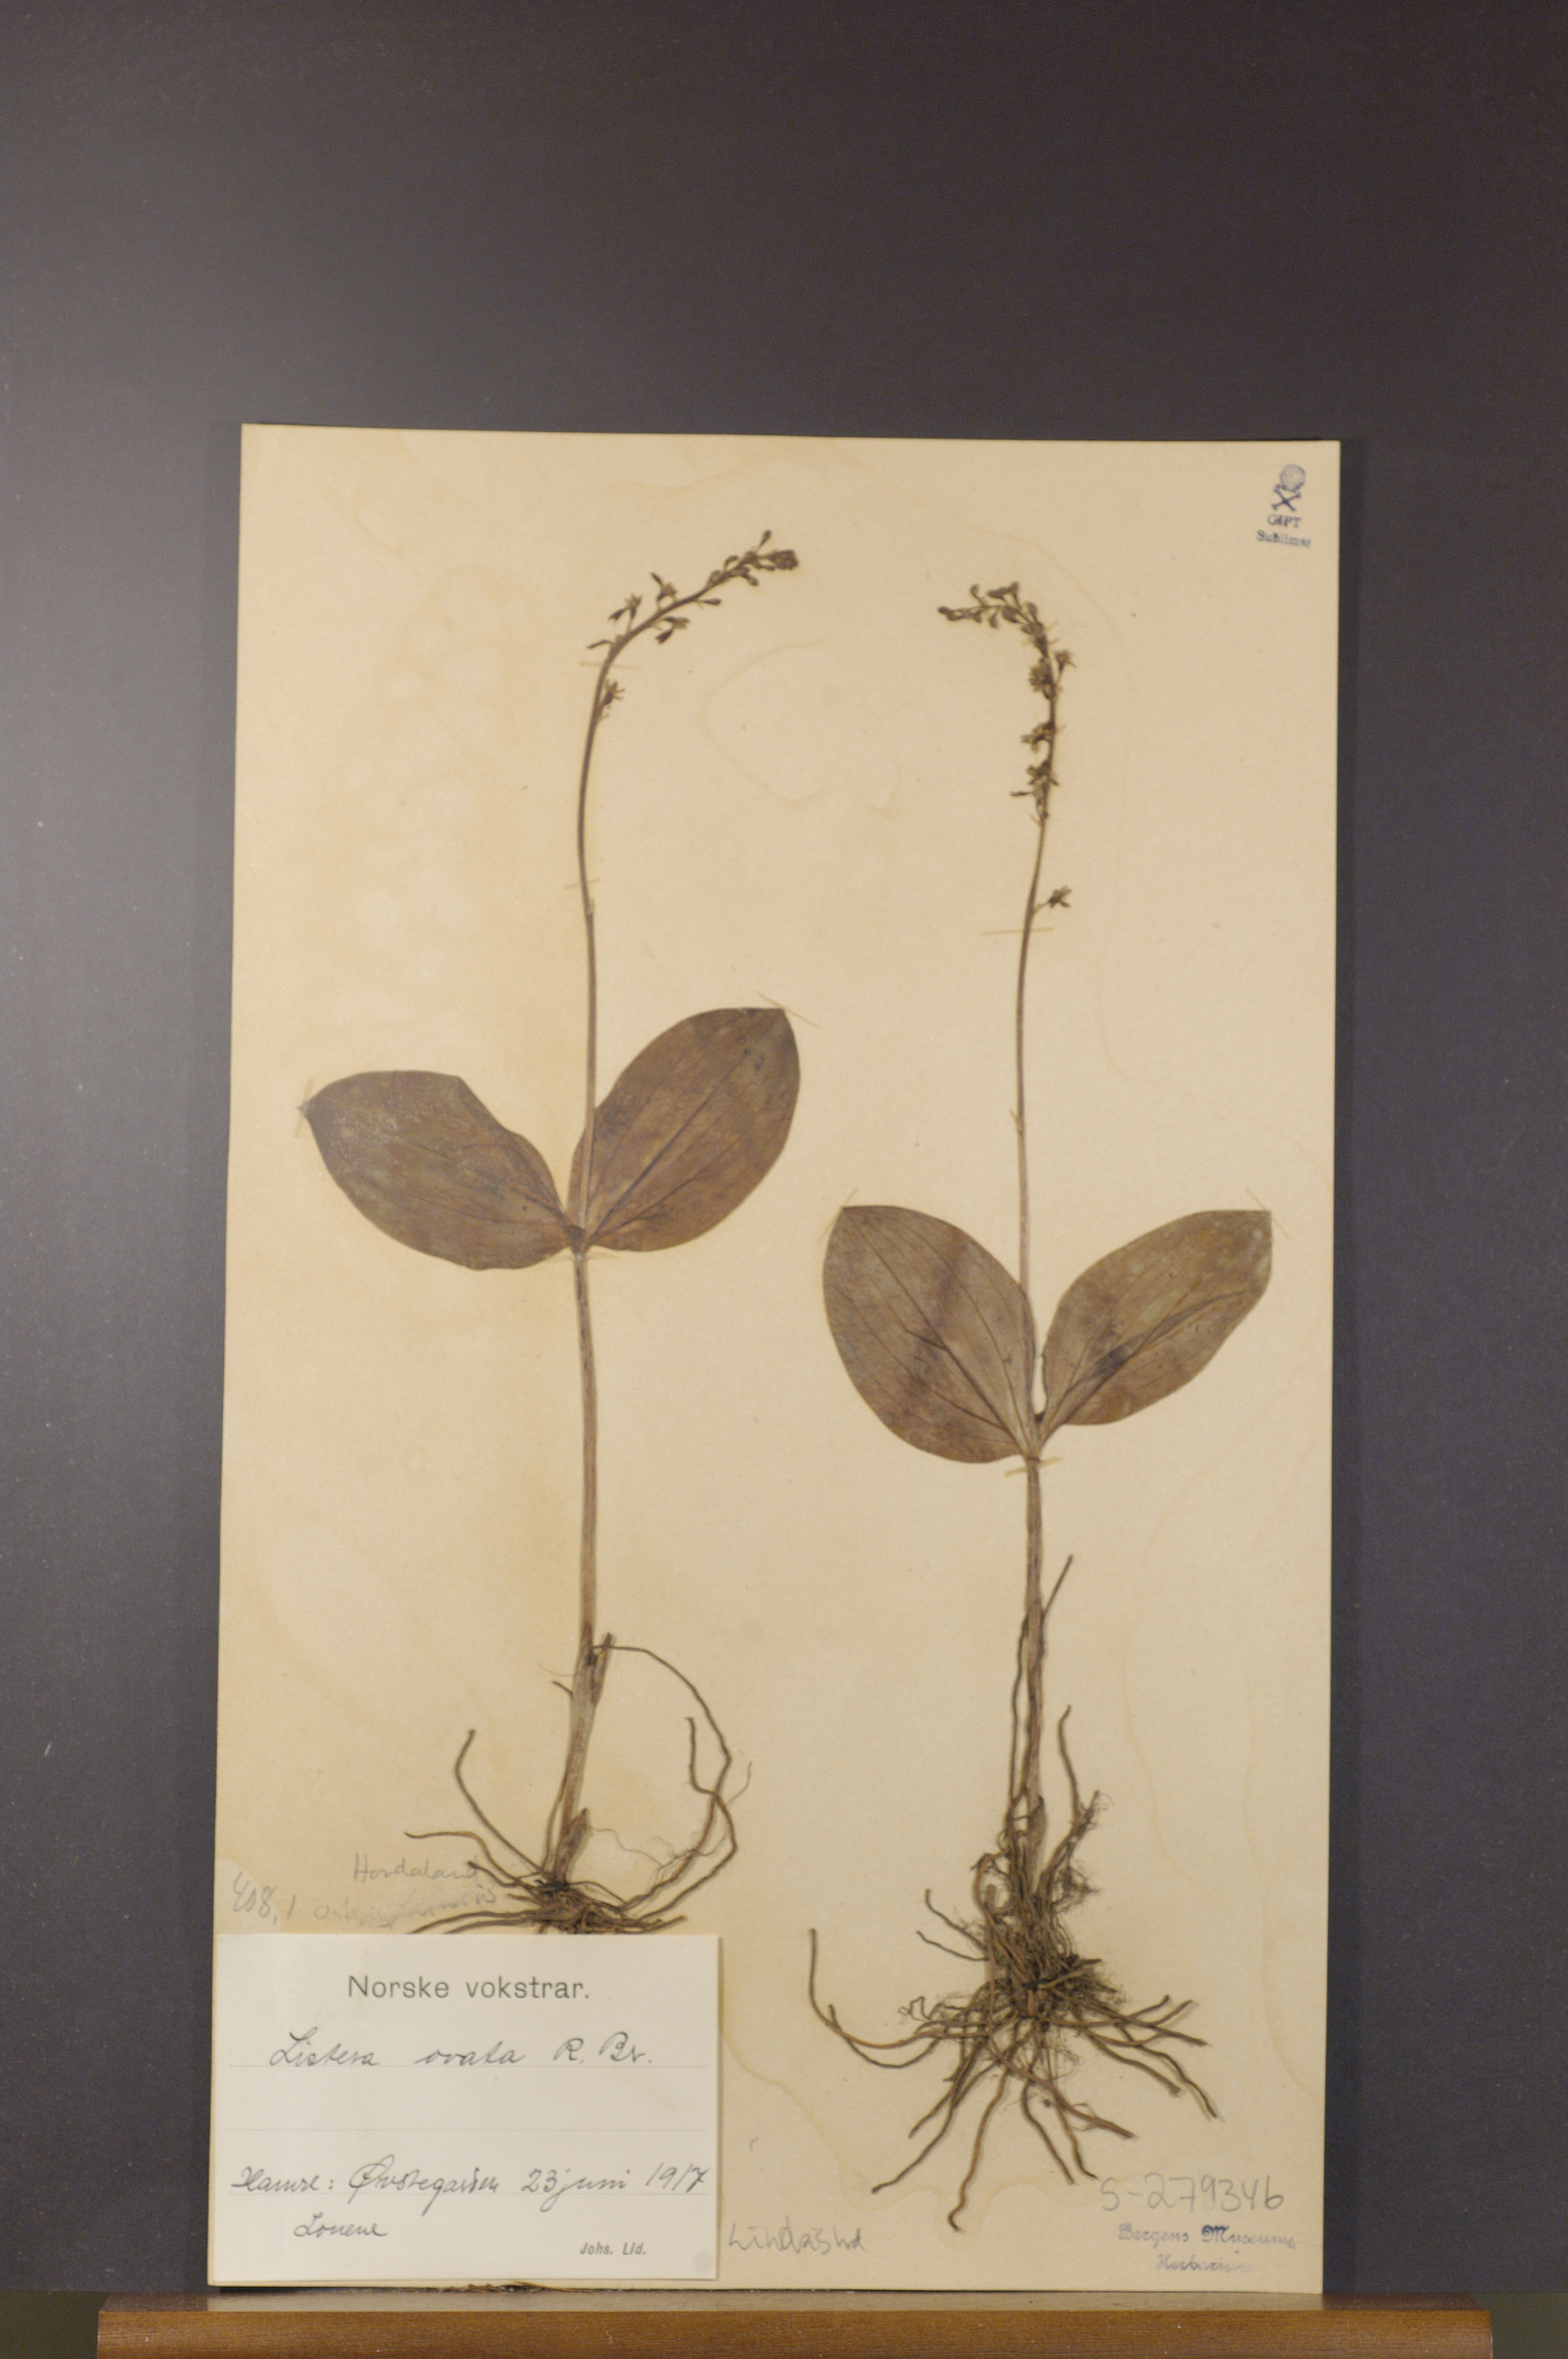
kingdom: Plantae
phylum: Tracheophyta
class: Liliopsida
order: Asparagales
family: Orchidaceae
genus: Neottia
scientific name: Neottia ovata
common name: Common twayblade
